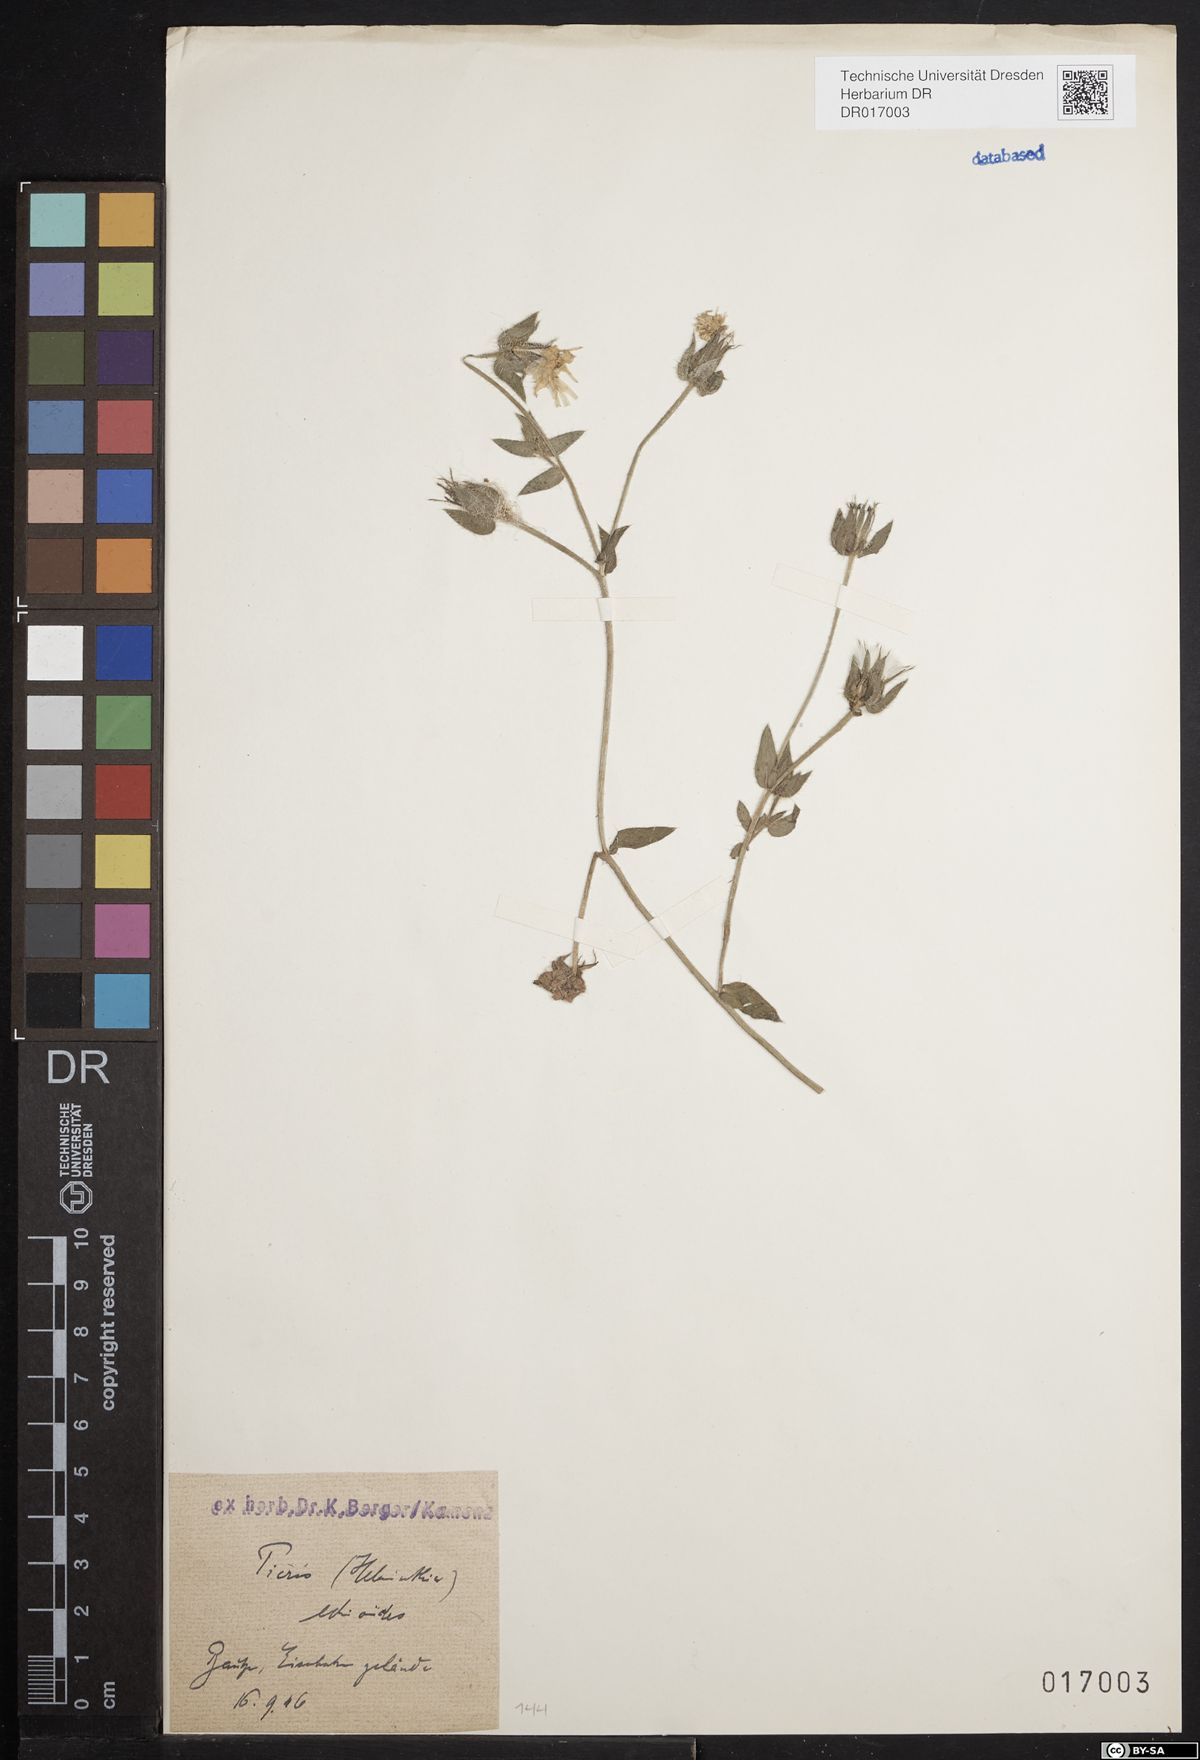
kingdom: Plantae
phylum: Tracheophyta
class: Magnoliopsida
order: Asterales
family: Asteraceae
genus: Helminthotheca
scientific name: Helminthotheca echioides
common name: Ox-tongue
